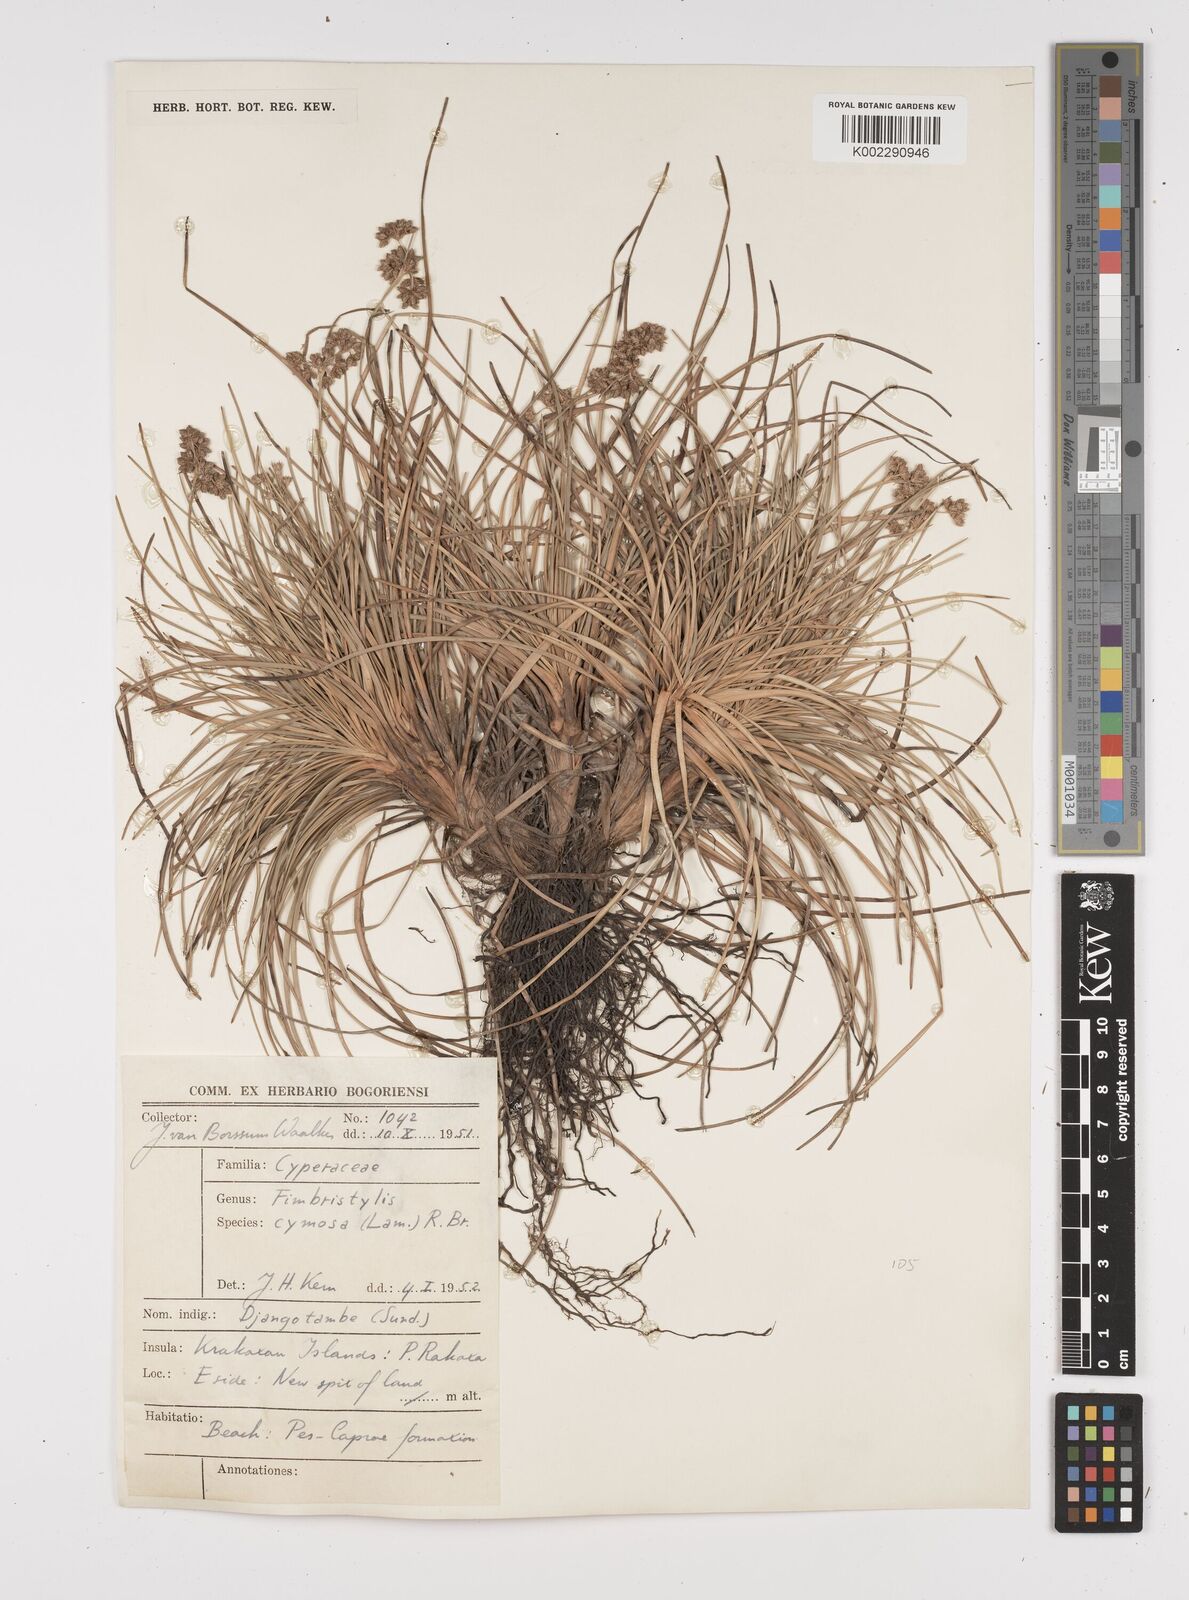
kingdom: Plantae
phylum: Tracheophyta
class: Liliopsida
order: Poales
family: Cyperaceae
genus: Fimbristylis
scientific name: Fimbristylis cymosa
